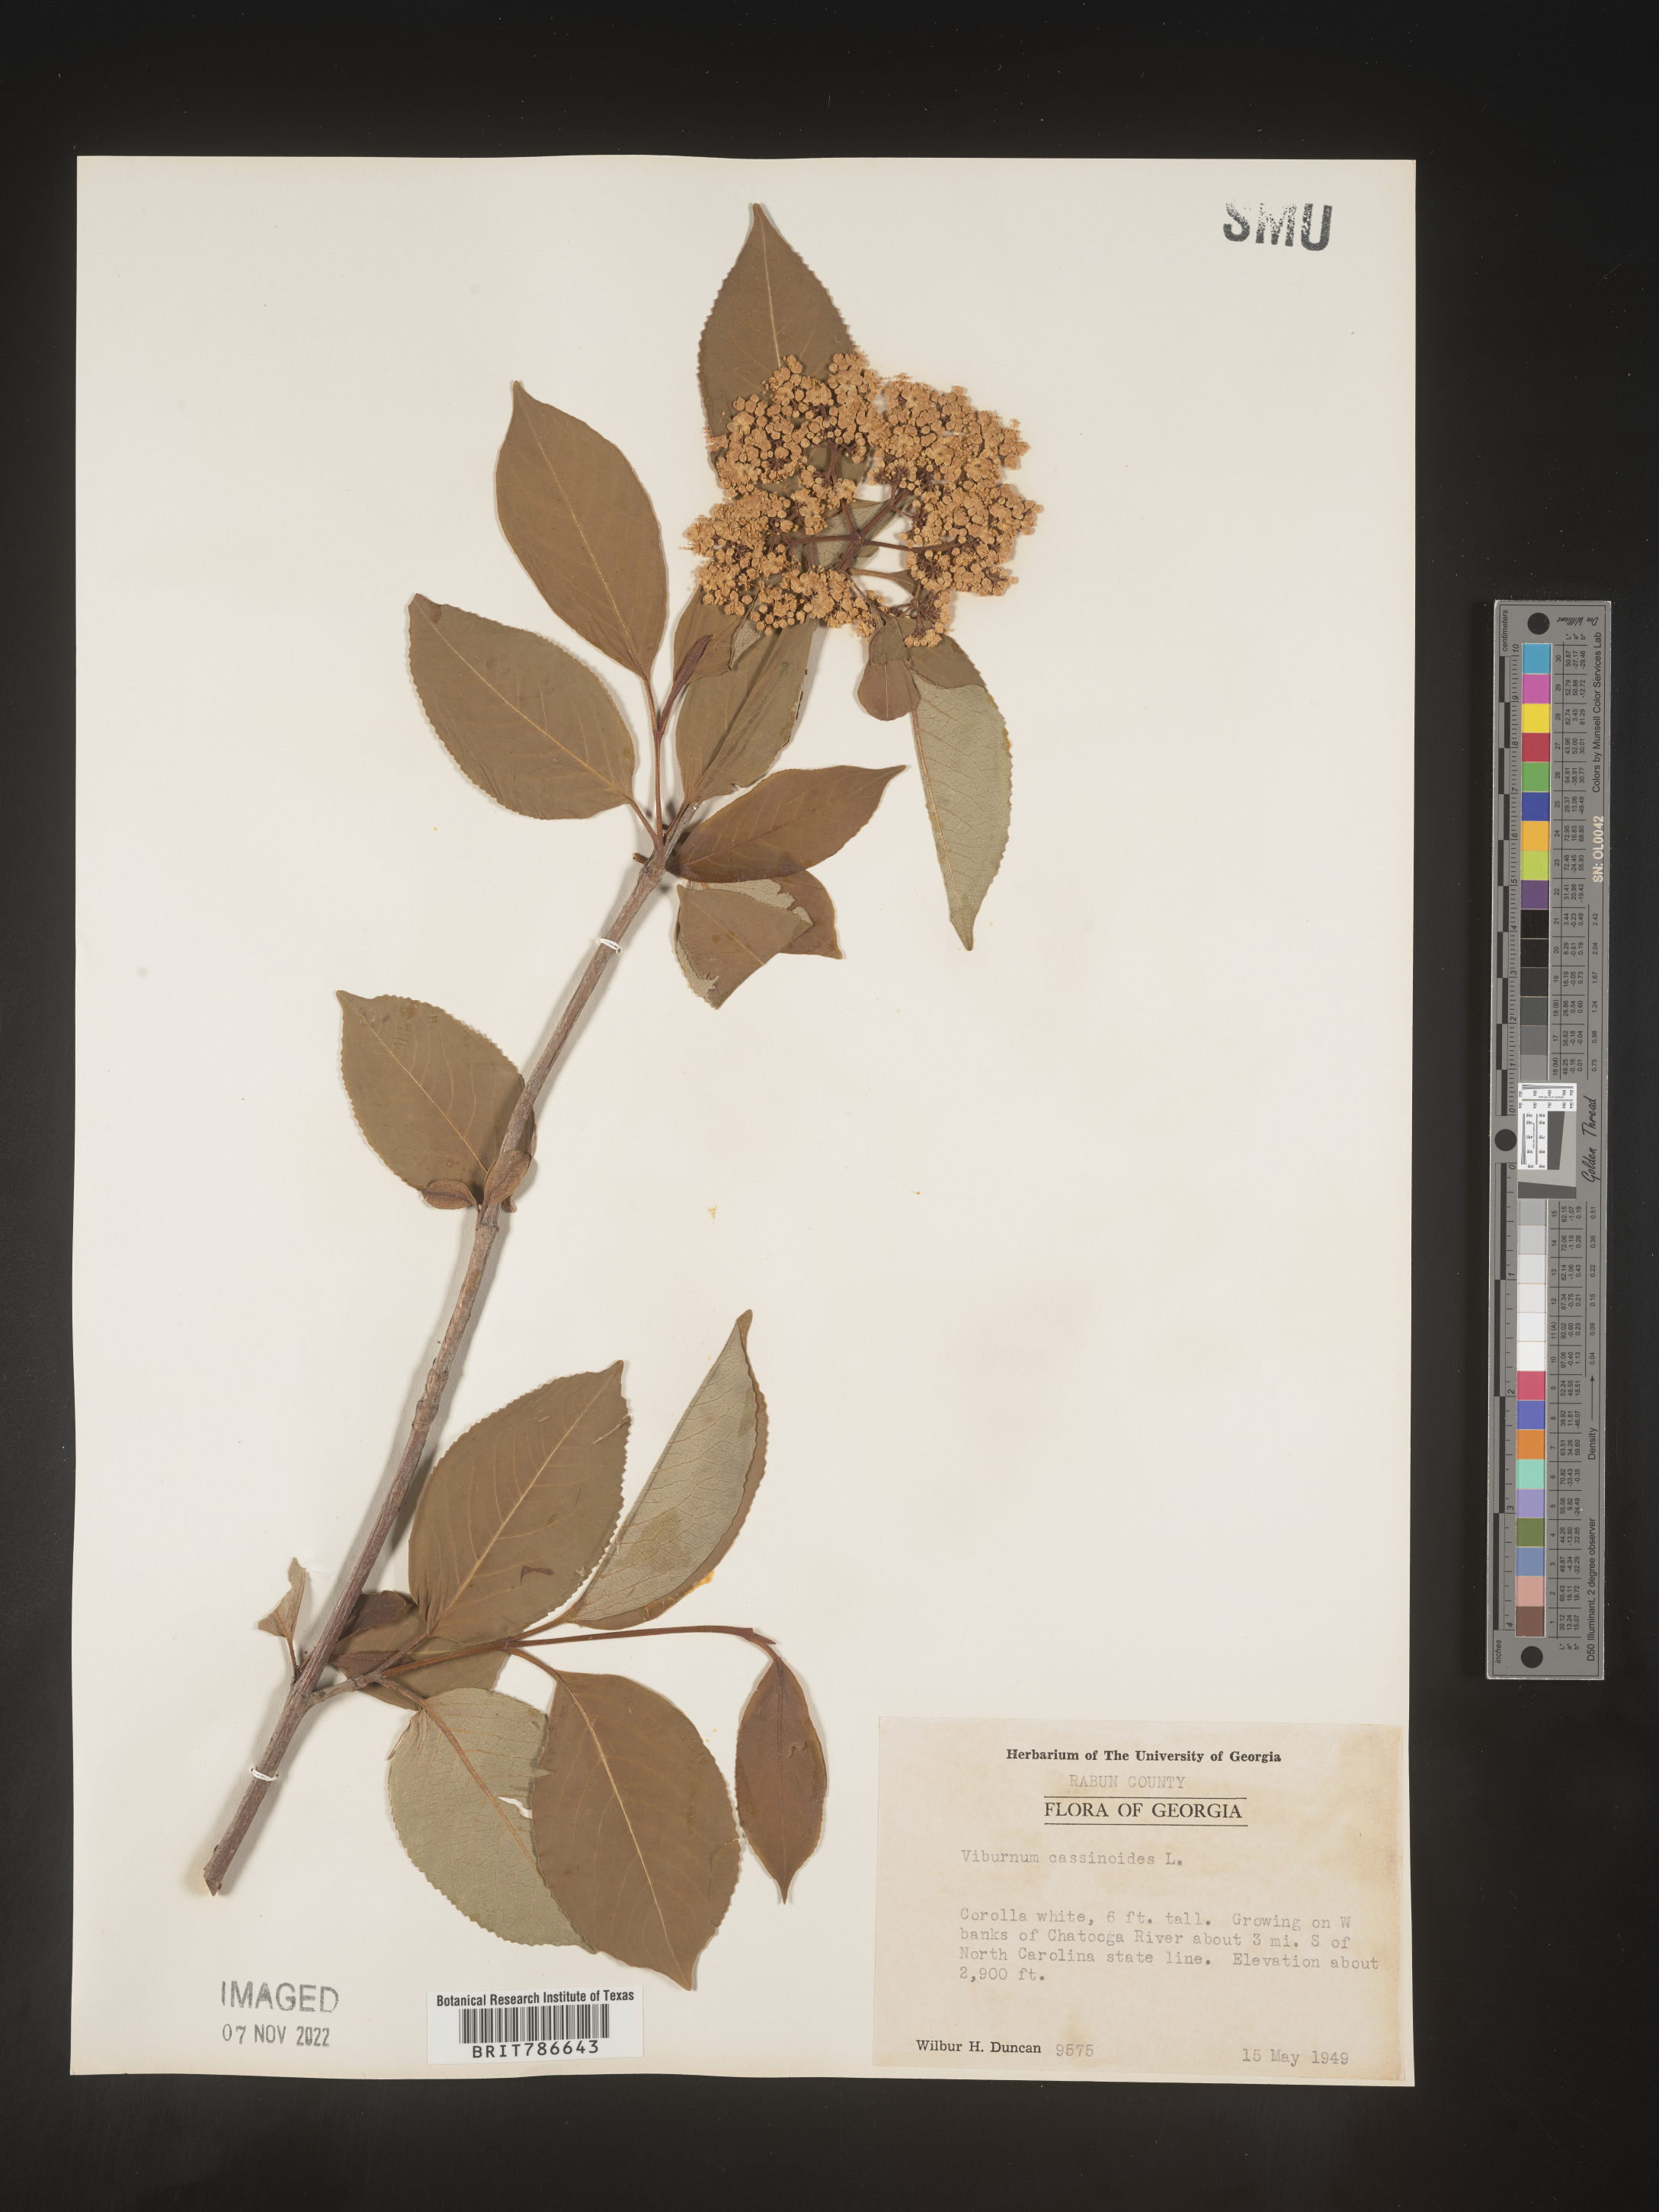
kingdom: Plantae
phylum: Tracheophyta
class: Magnoliopsida
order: Dipsacales
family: Viburnaceae
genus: Viburnum
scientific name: Viburnum cassinoides
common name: Swamp haw
